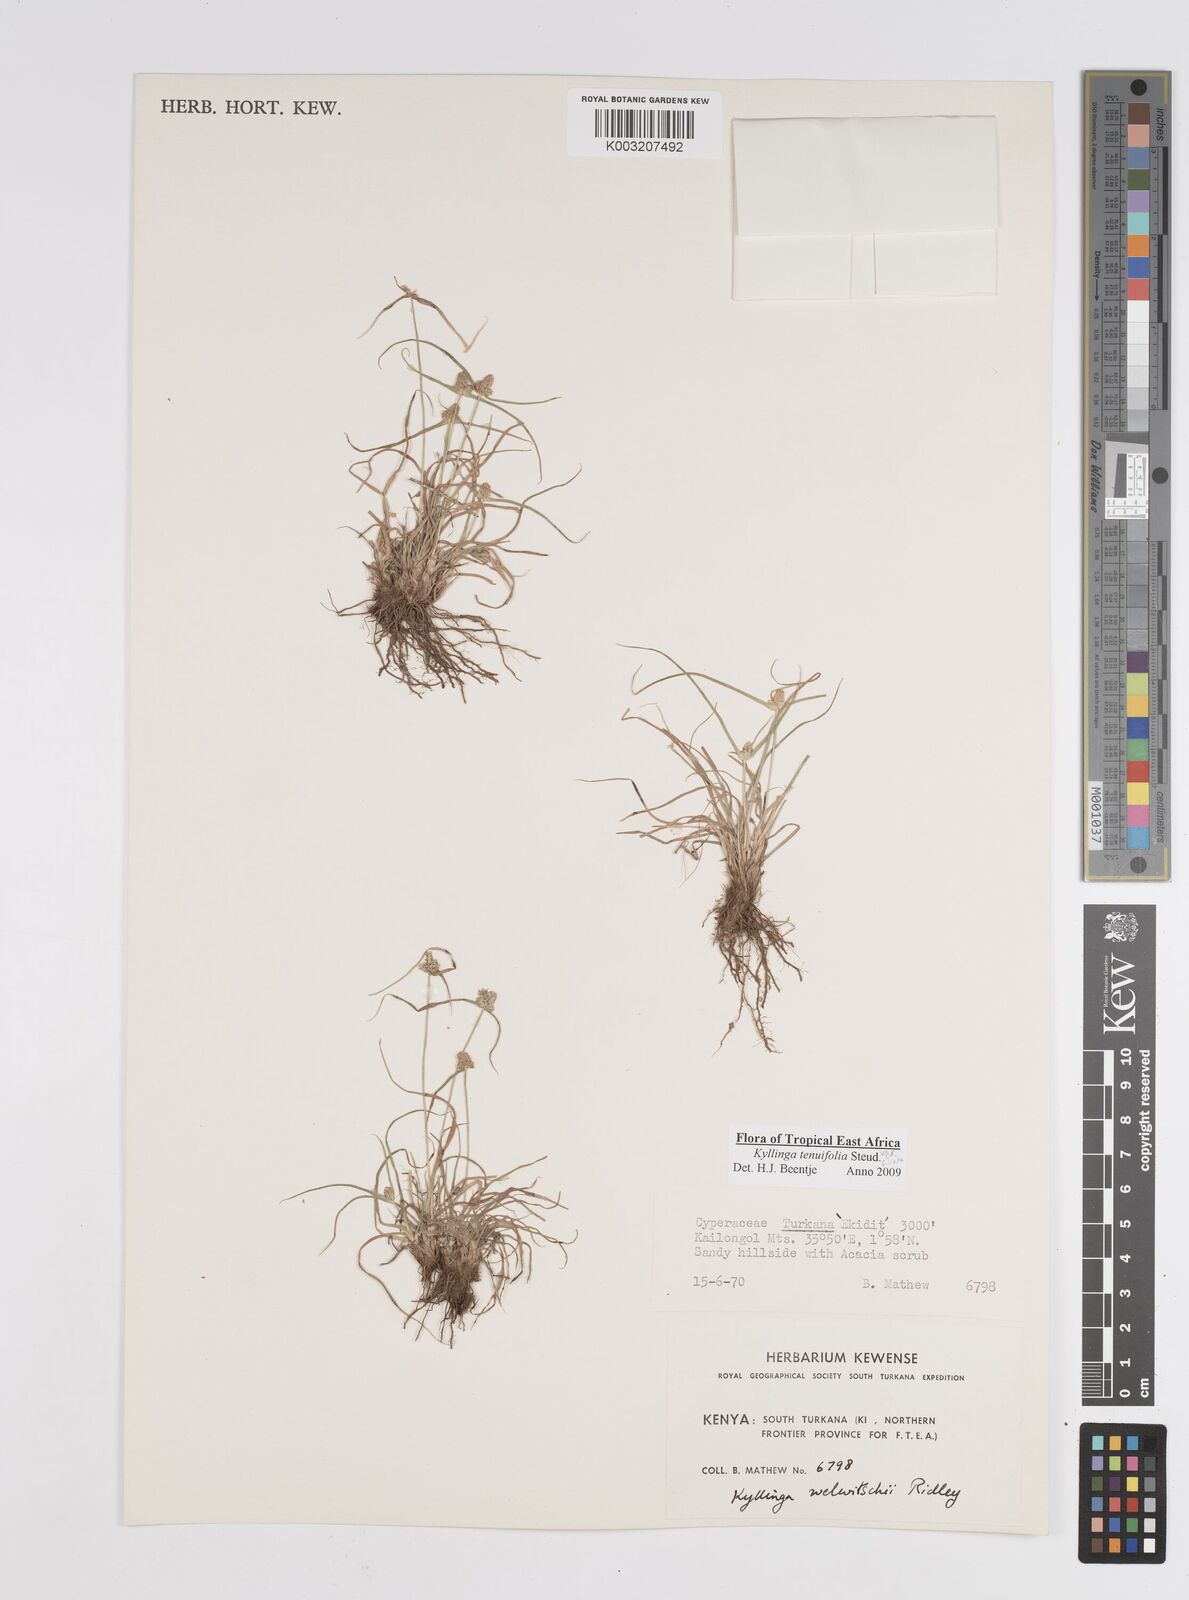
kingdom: Plantae
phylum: Tracheophyta
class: Liliopsida
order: Poales
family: Cyperaceae
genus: Cyperus
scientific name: Cyperus
